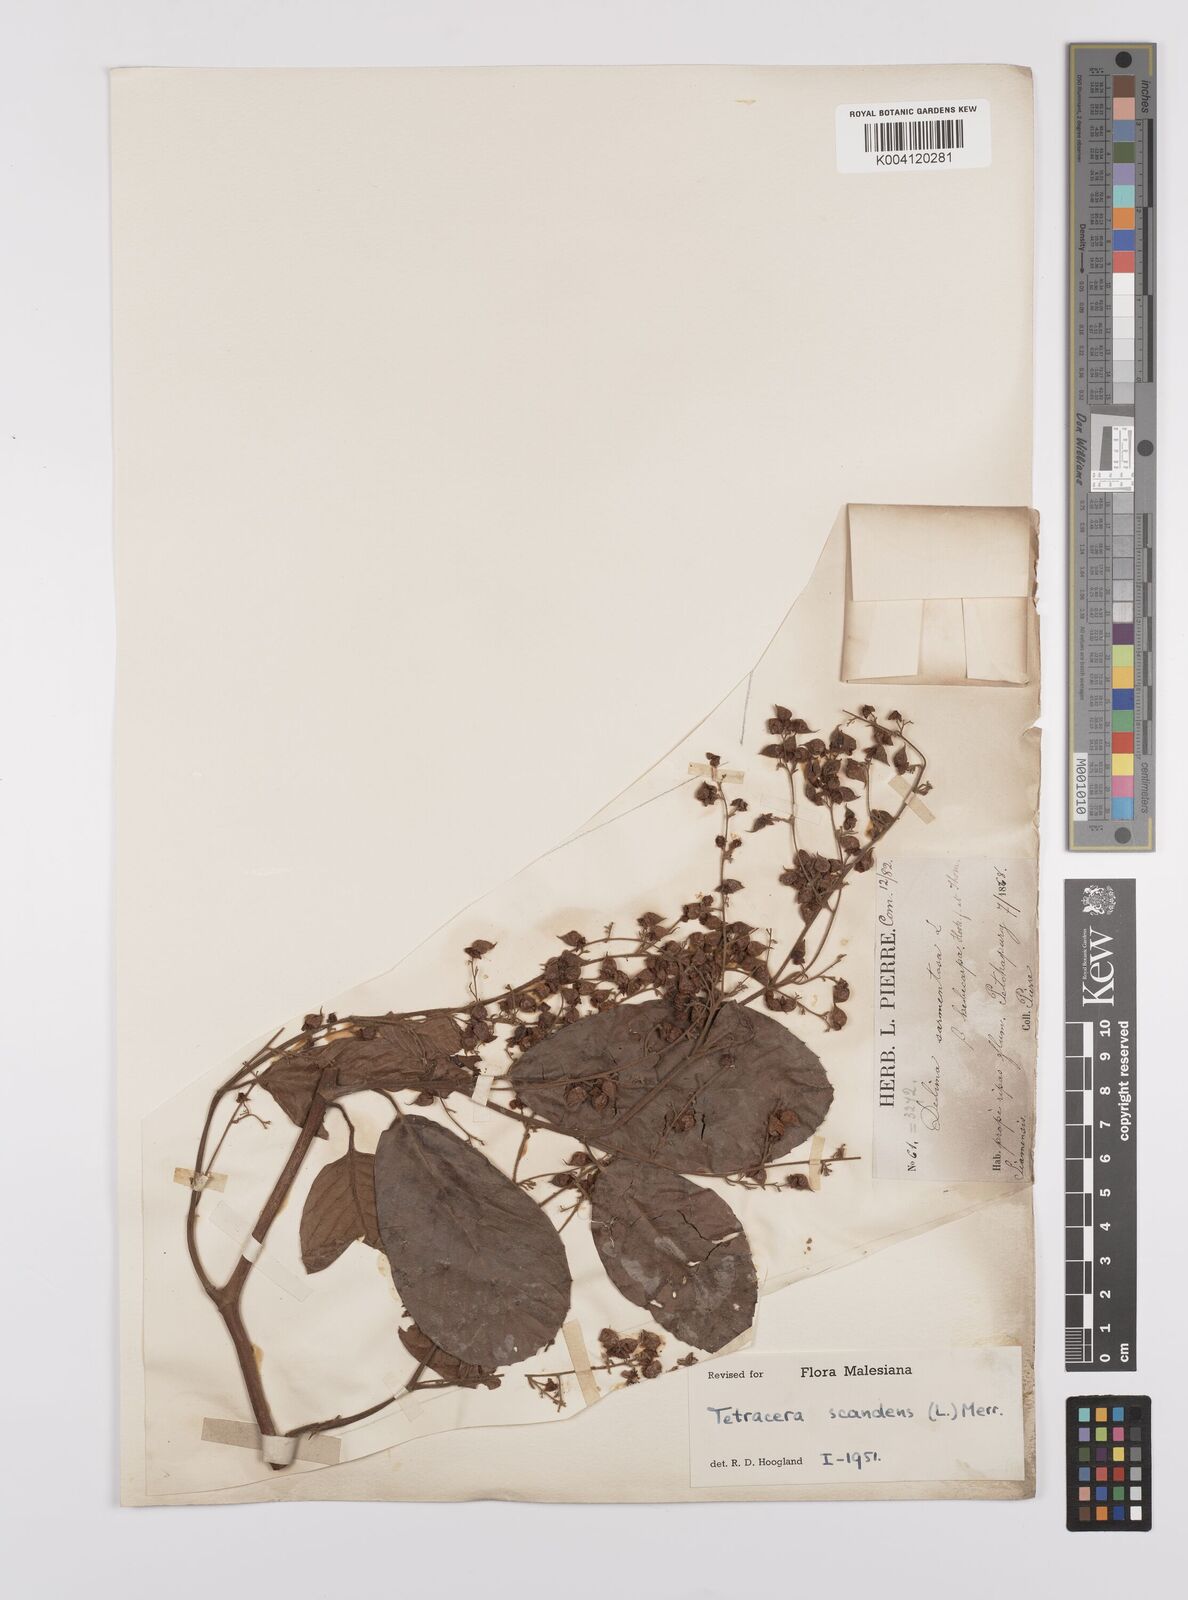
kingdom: Plantae
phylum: Tracheophyta
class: Magnoliopsida
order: Dilleniales
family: Dilleniaceae
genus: Tetracera
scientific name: Tetracera
